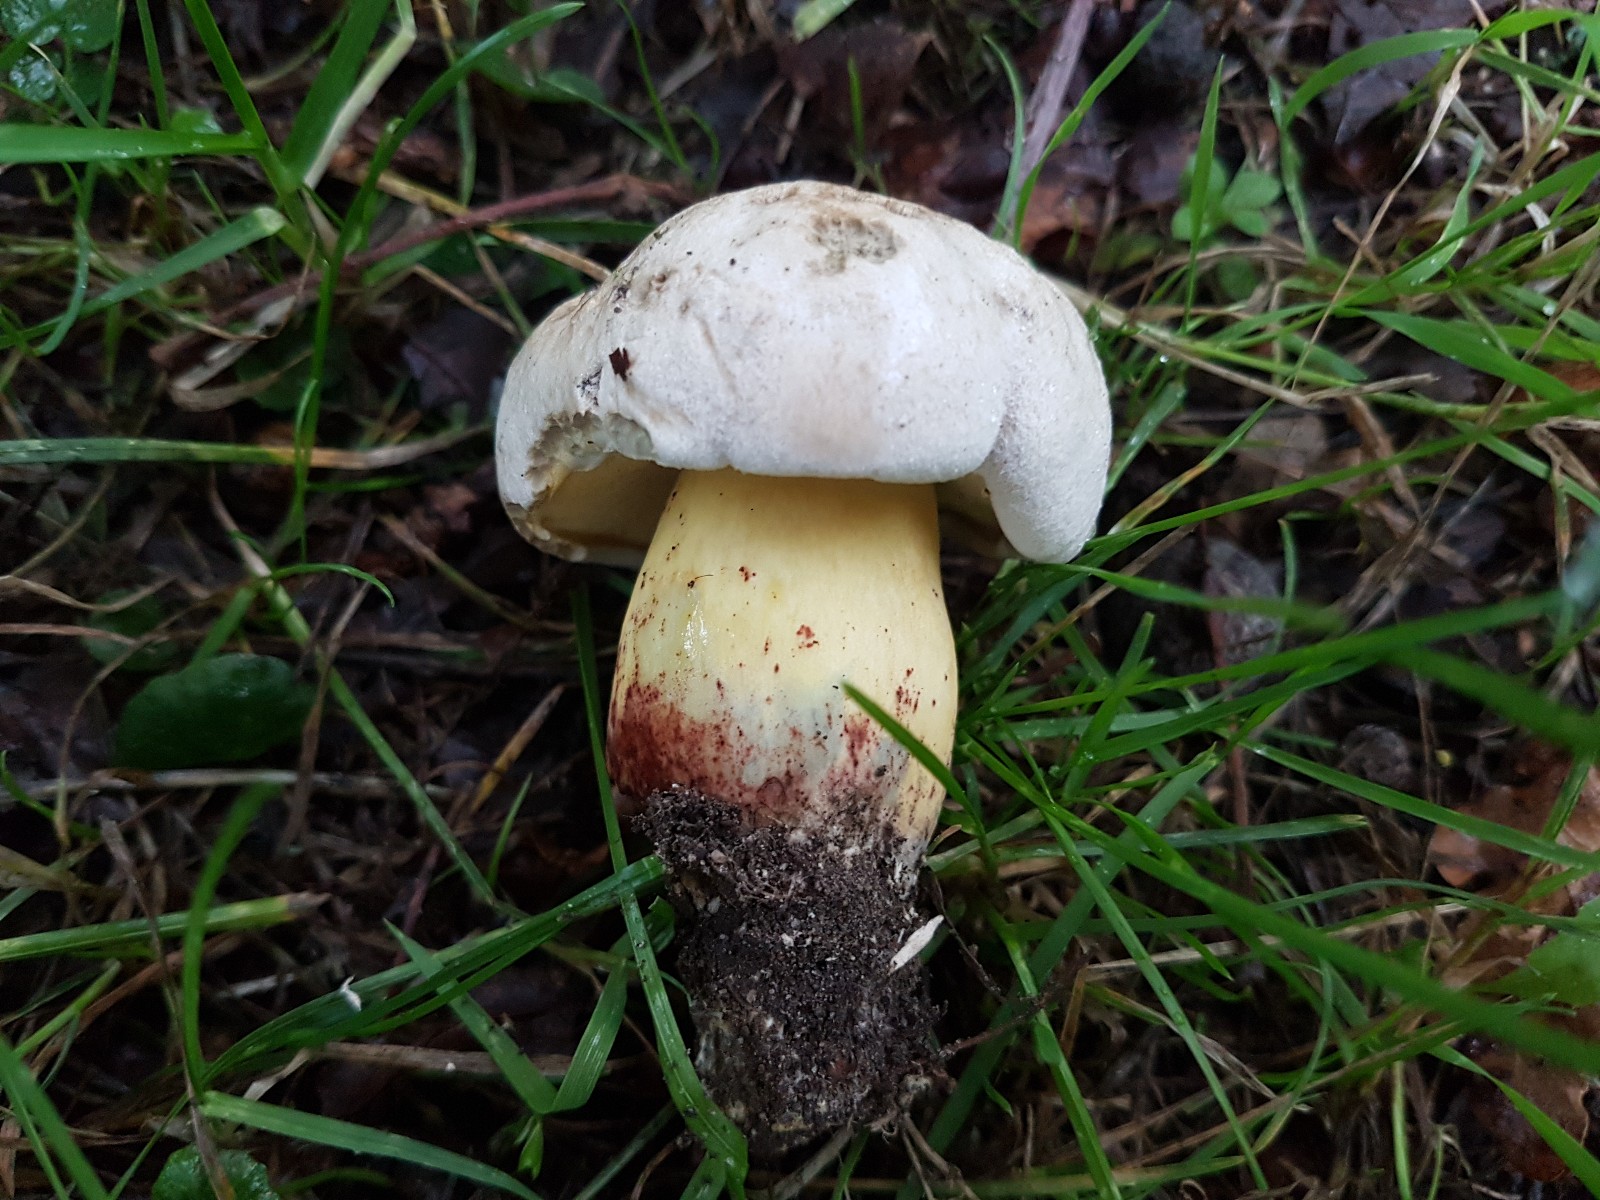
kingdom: Fungi
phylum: Basidiomycota
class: Agaricomycetes
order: Boletales
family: Boletaceae
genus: Caloboletus
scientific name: Caloboletus radicans
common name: rod-rørhat
